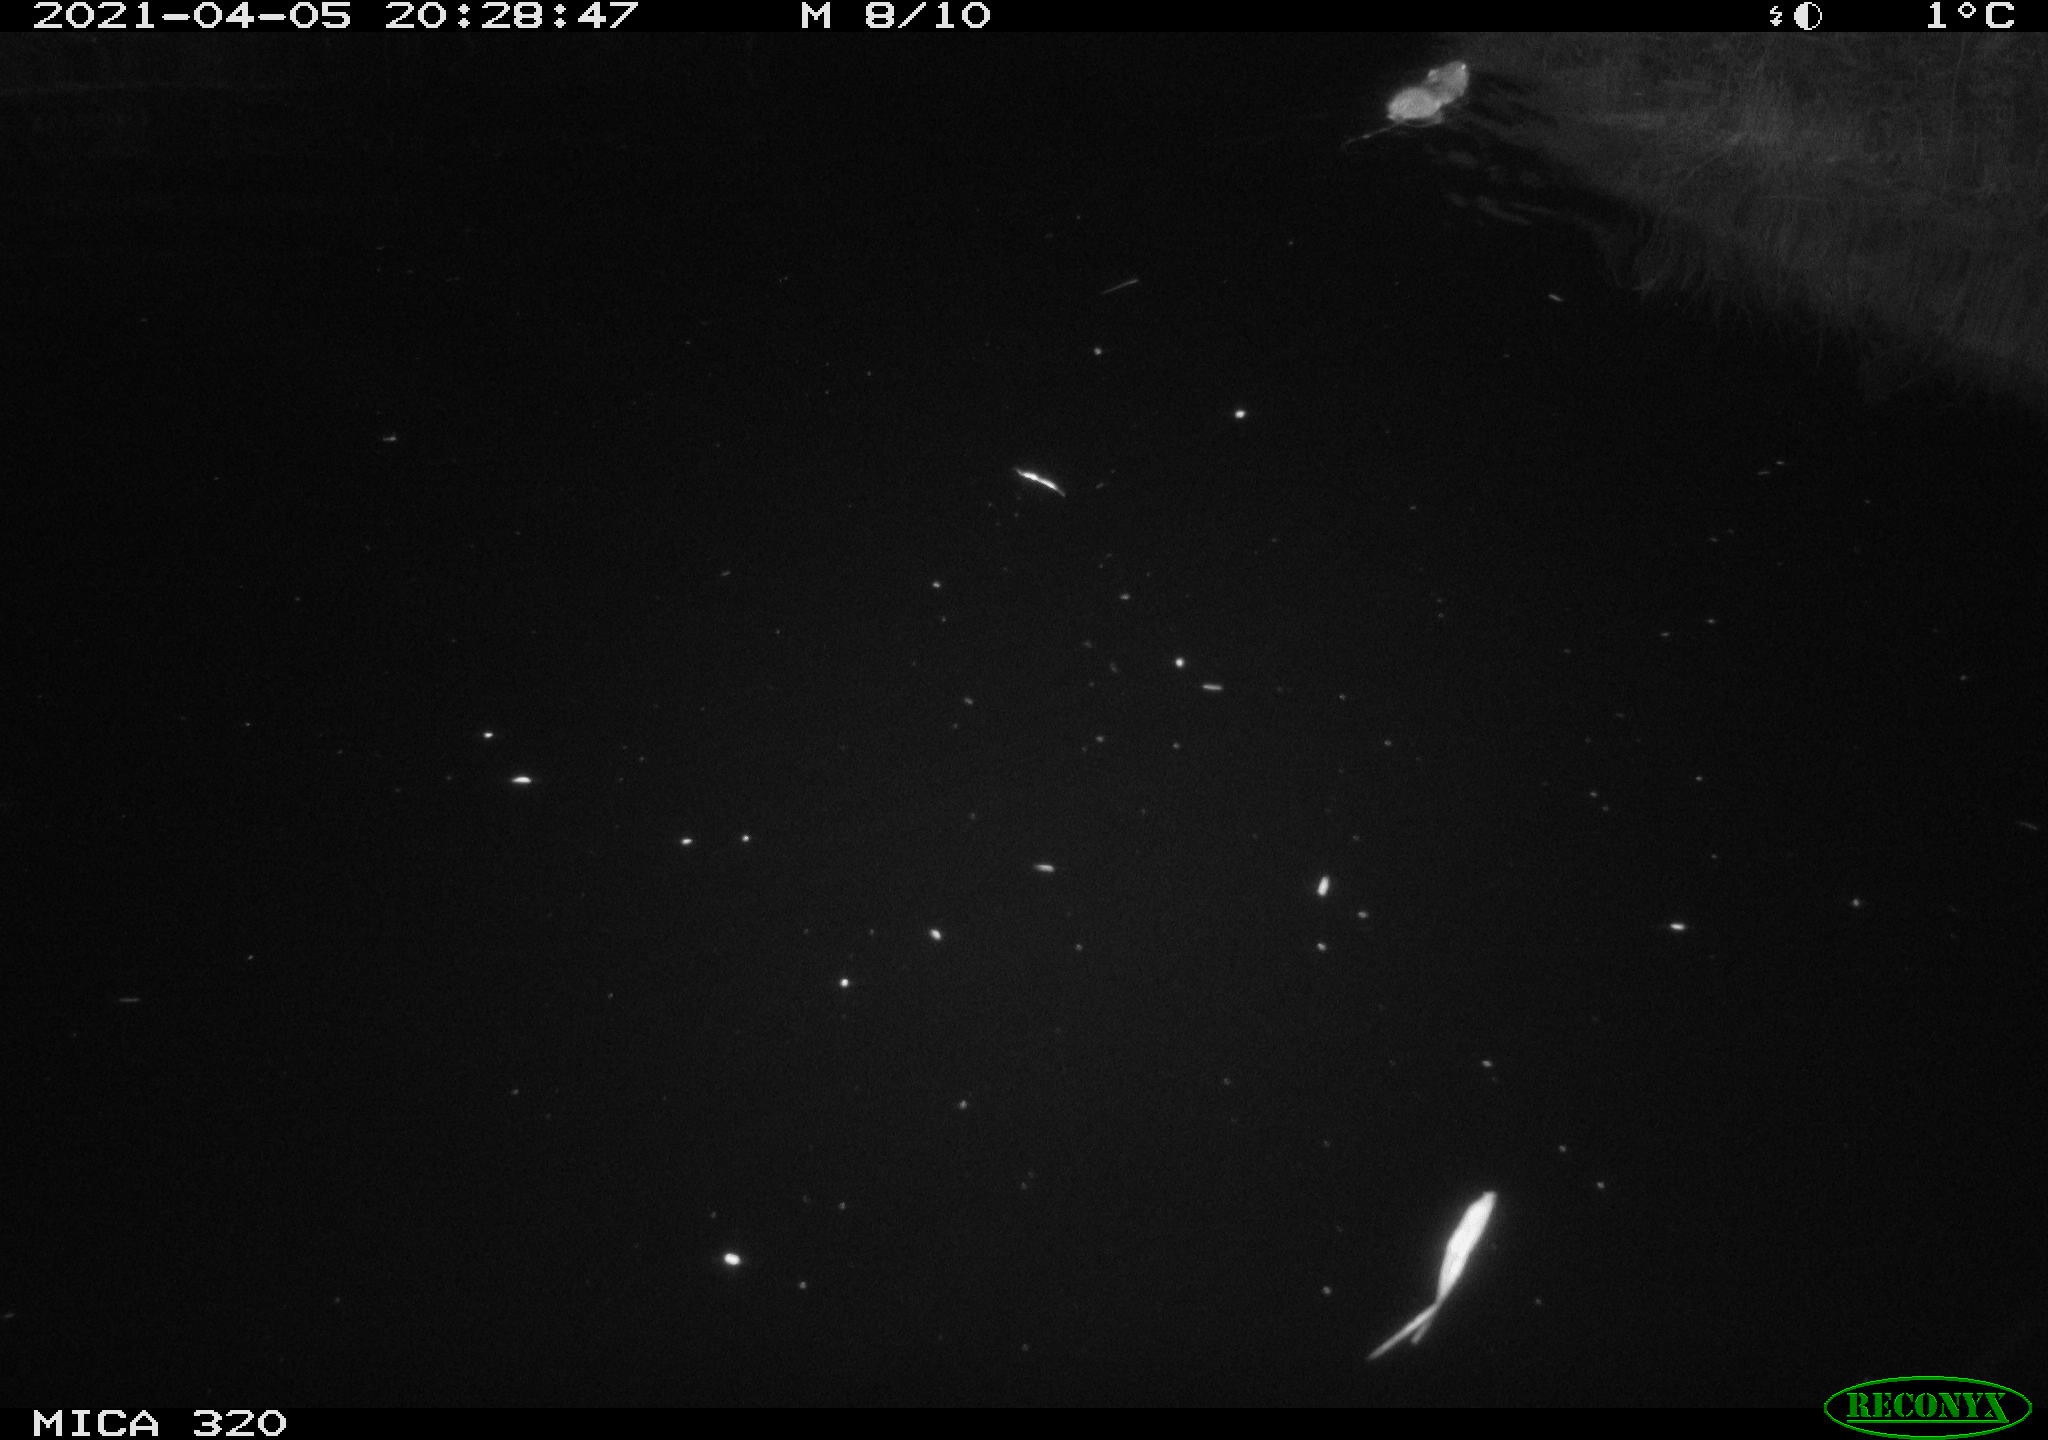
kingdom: Animalia
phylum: Chordata
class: Mammalia
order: Rodentia
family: Muridae
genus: Rattus
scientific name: Rattus norvegicus
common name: Brown rat
